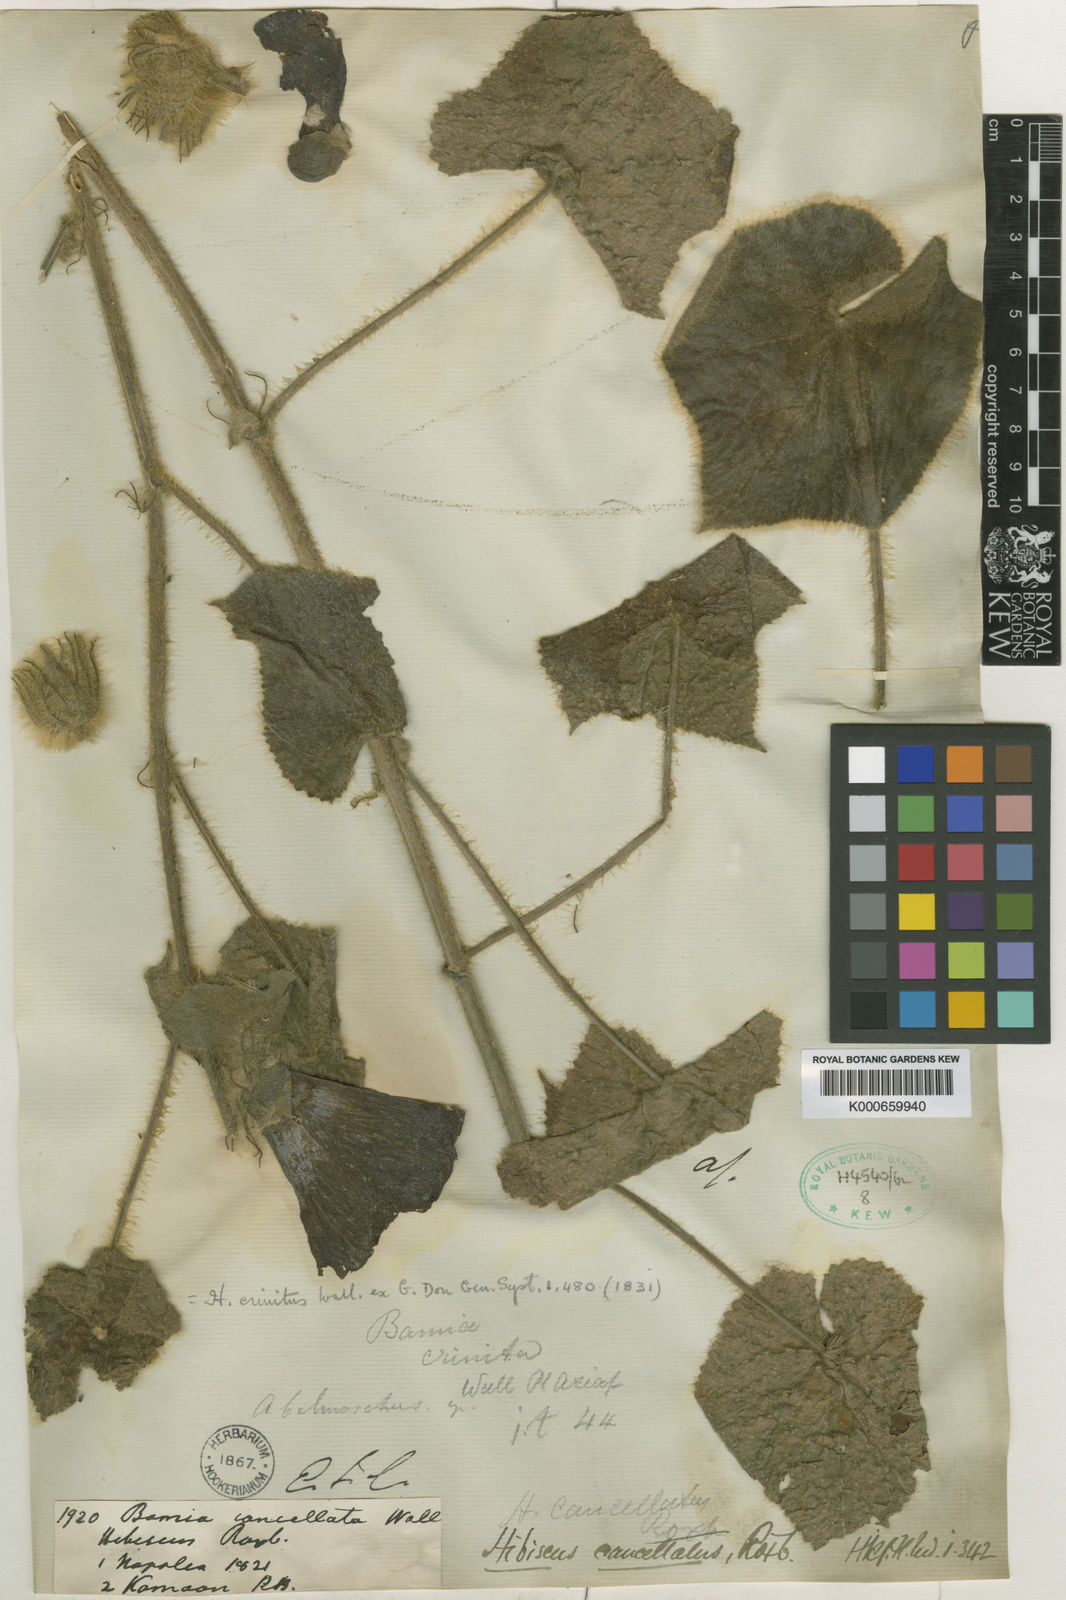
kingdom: Plantae
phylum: Tracheophyta
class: Magnoliopsida
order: Malvales
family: Malvaceae
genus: Abelmoschus
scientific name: Abelmoschus crinitus
